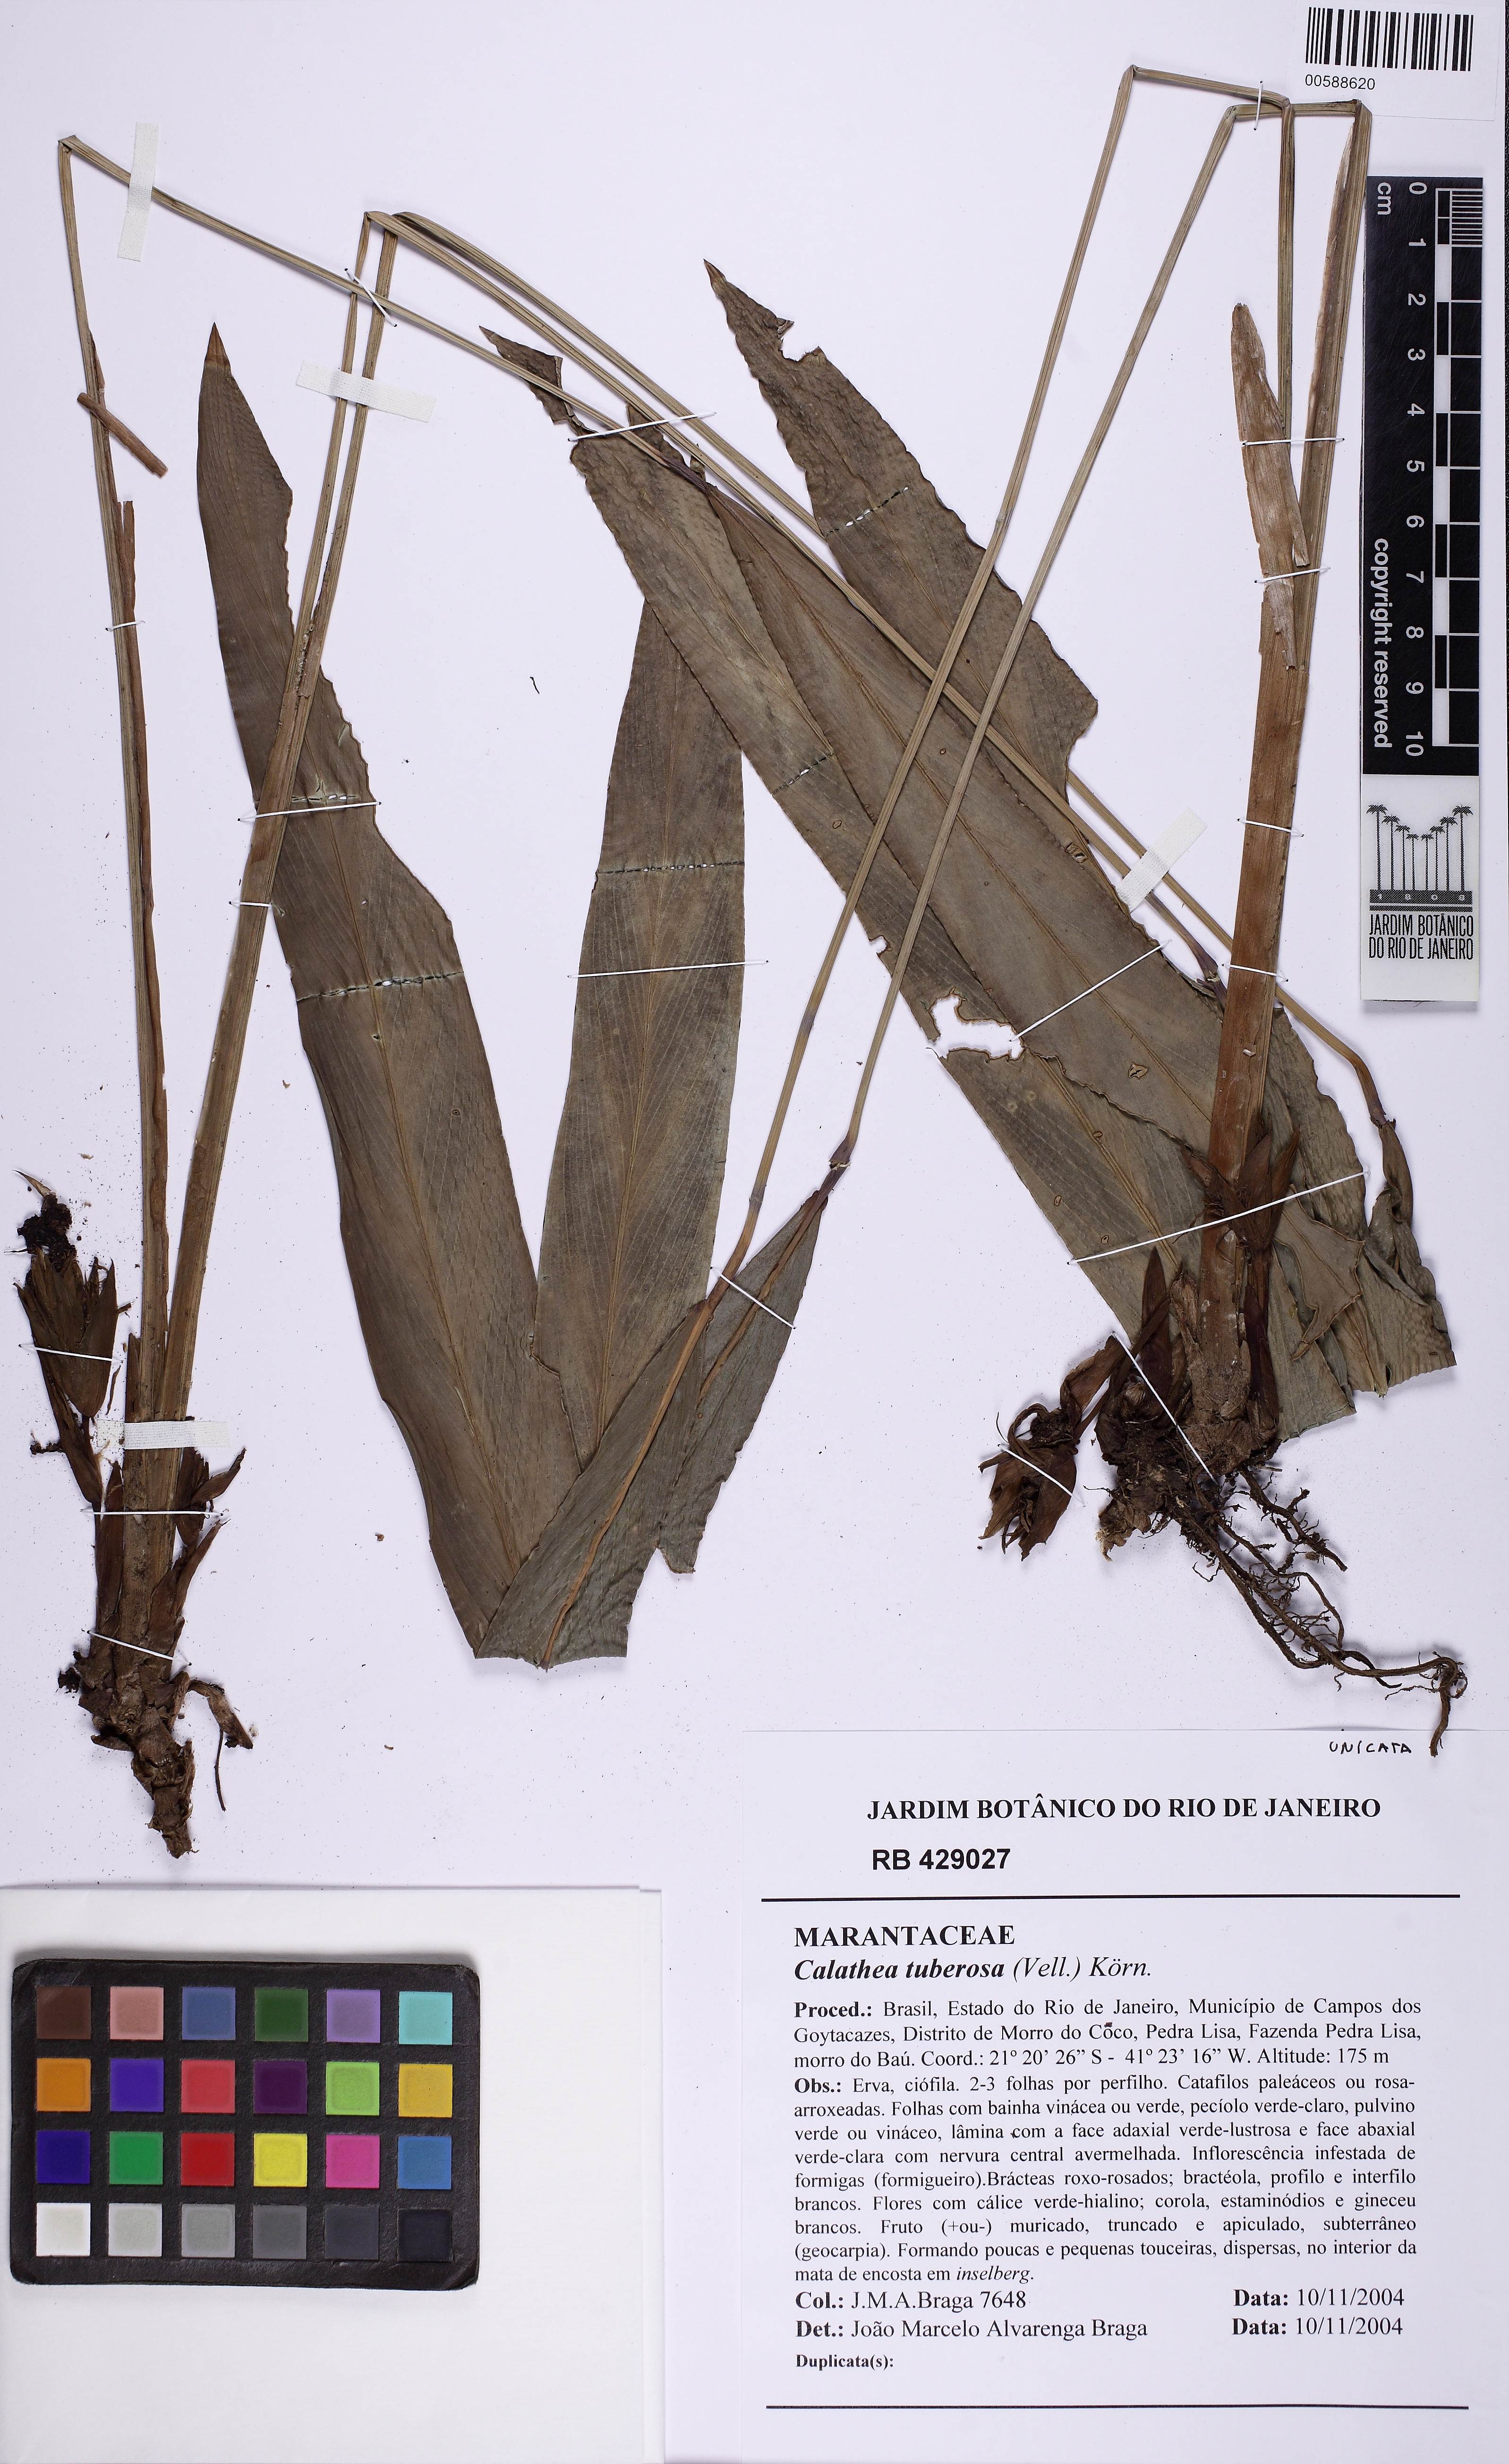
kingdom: Plantae
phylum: Tracheophyta
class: Liliopsida
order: Zingiberales
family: Marantaceae
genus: Goeppertia
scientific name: Goeppertia tuberosa
